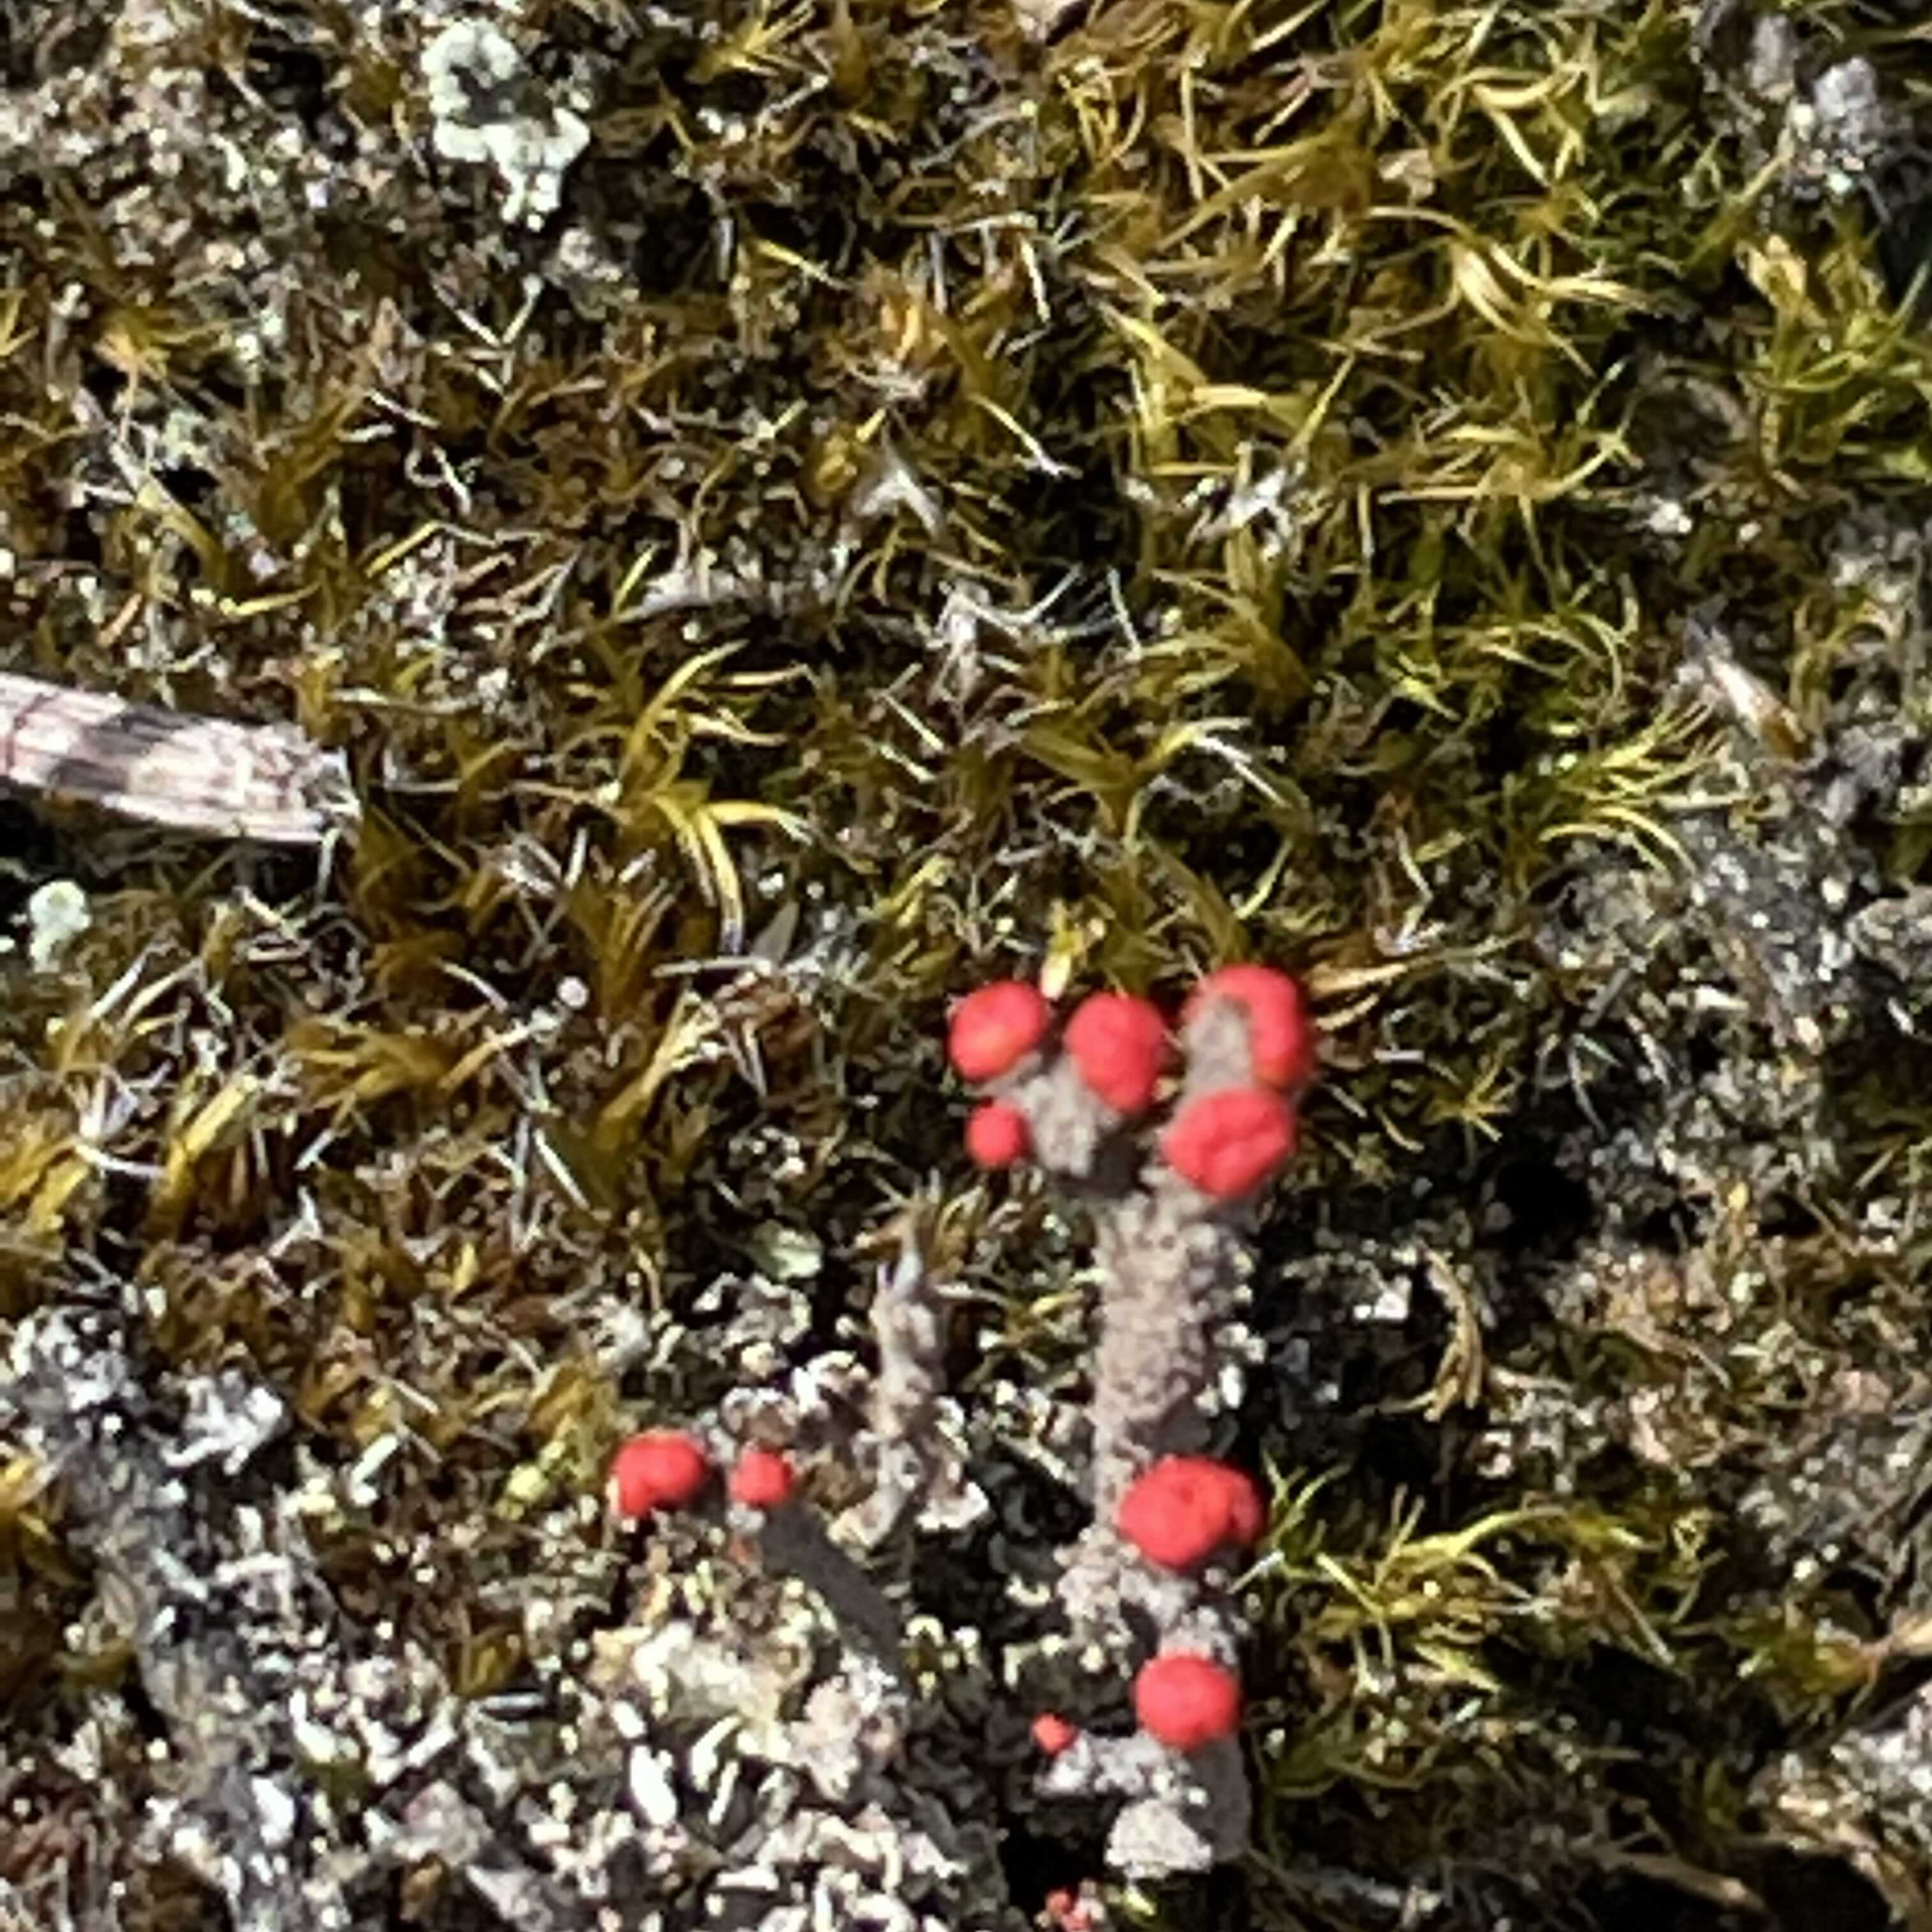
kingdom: Fungi
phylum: Ascomycota
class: Lecanoromycetes
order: Lecanorales
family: Cladoniaceae
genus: Cladonia
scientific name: Cladonia floerkeana
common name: lakrød bægerlav
